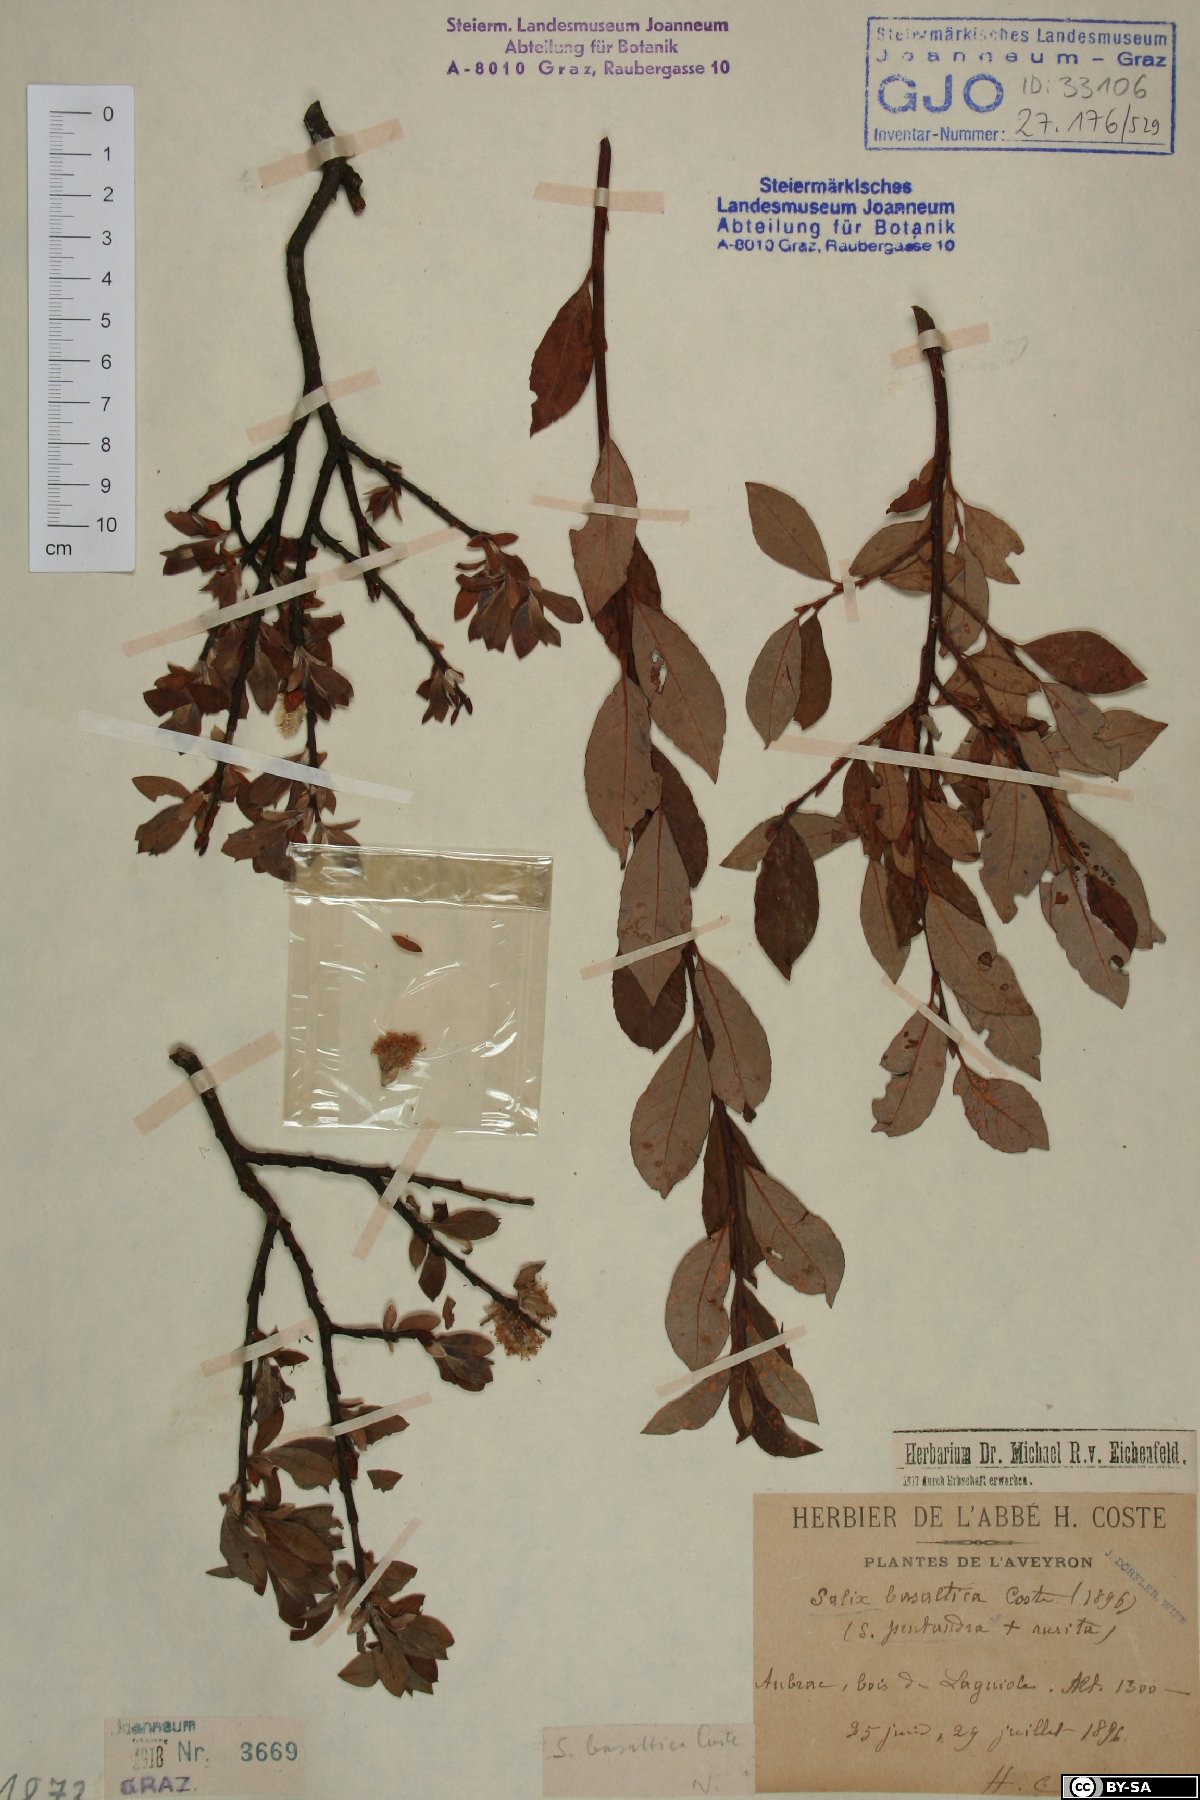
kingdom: Plantae
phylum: Tracheophyta
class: Magnoliopsida
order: Malpighiales
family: Salicaceae
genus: Salix
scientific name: Salix basaltica
